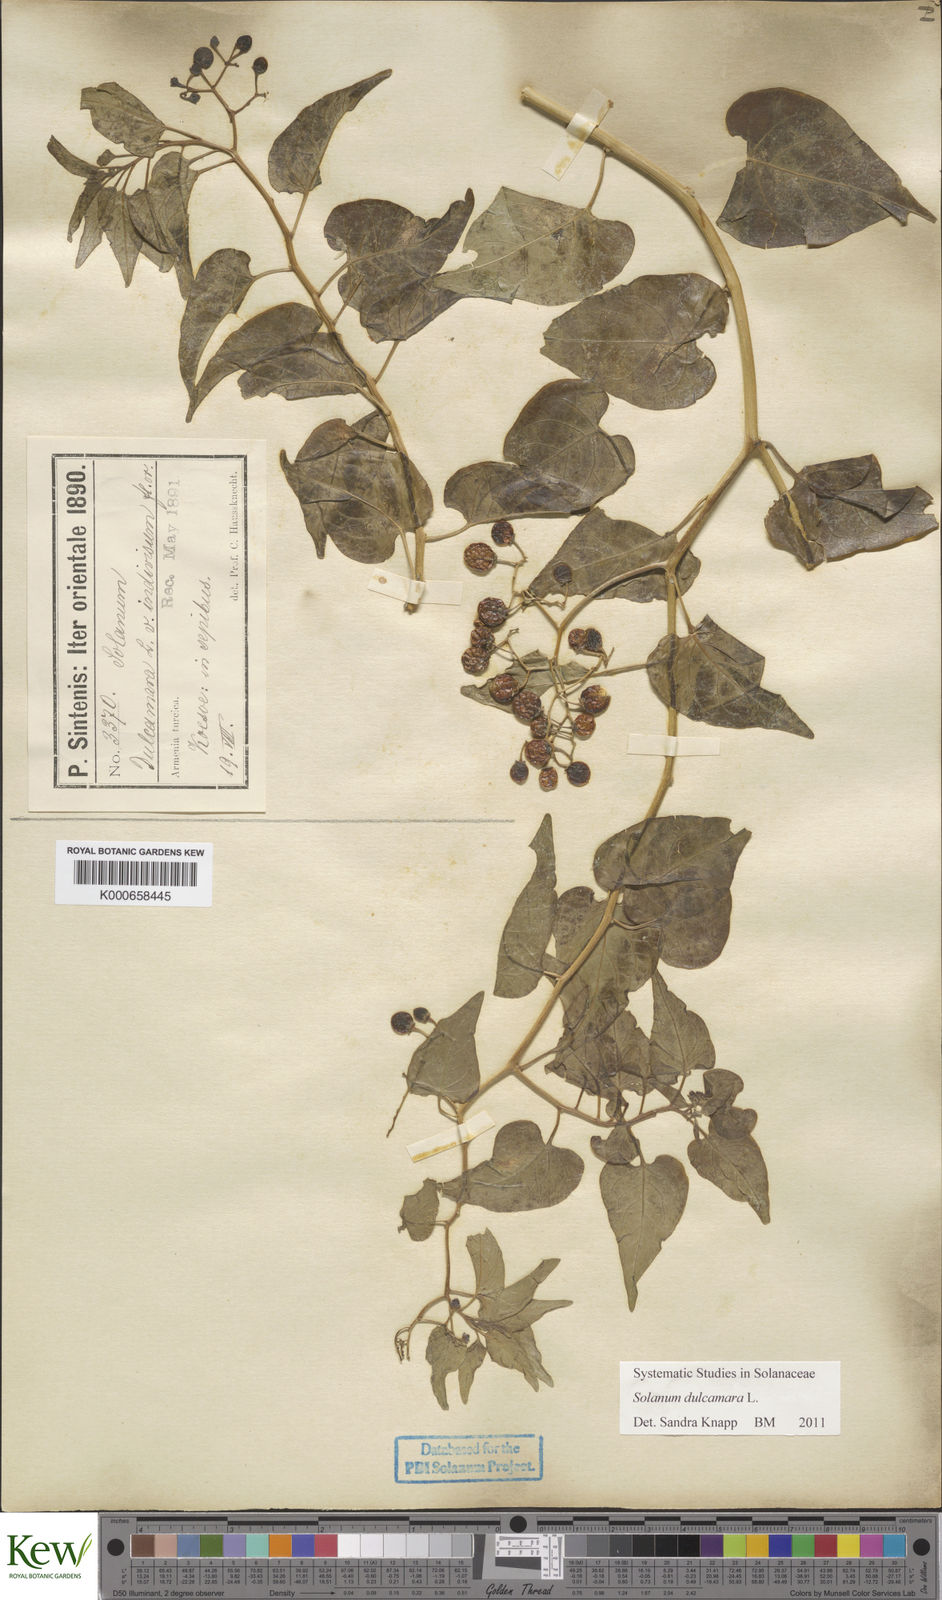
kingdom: Plantae
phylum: Tracheophyta
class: Magnoliopsida
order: Solanales
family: Solanaceae
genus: Solanum
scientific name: Solanum dulcamara
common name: Climbing nightshade
